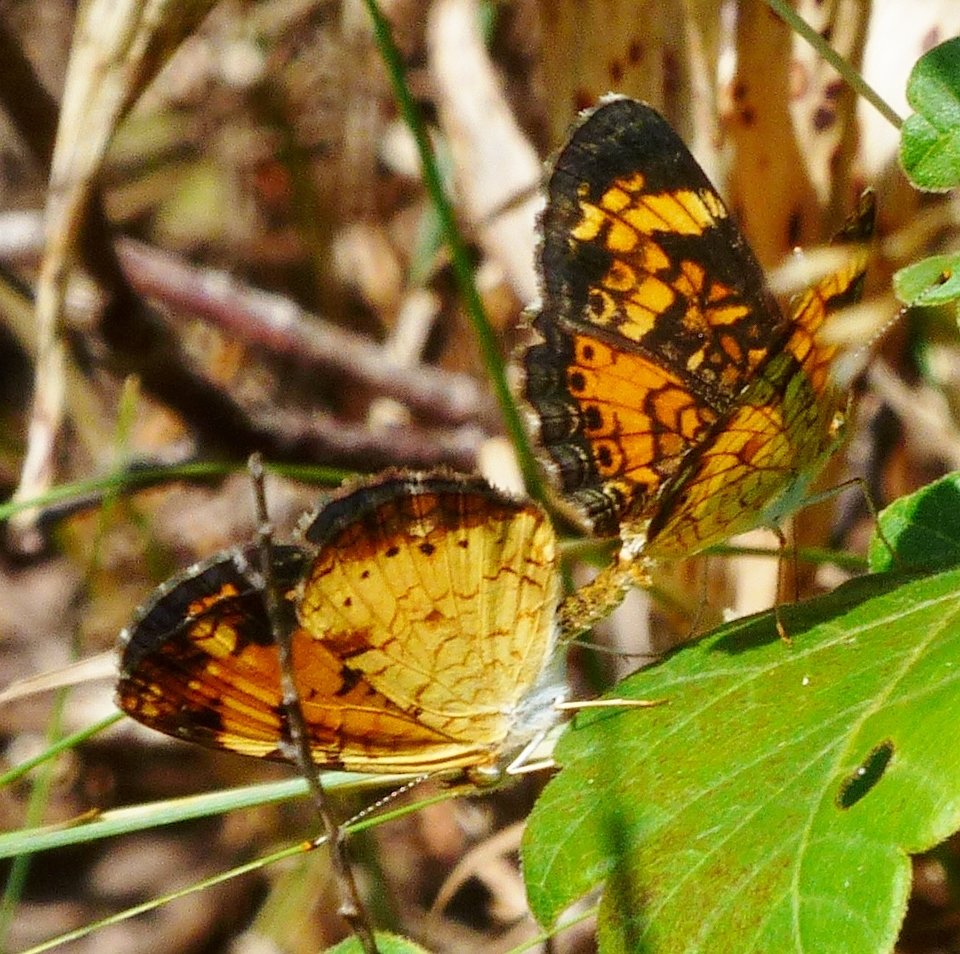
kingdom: Animalia
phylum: Arthropoda
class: Insecta
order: Lepidoptera
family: Nymphalidae
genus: Phyciodes
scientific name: Phyciodes tharos
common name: Northern Crescent
